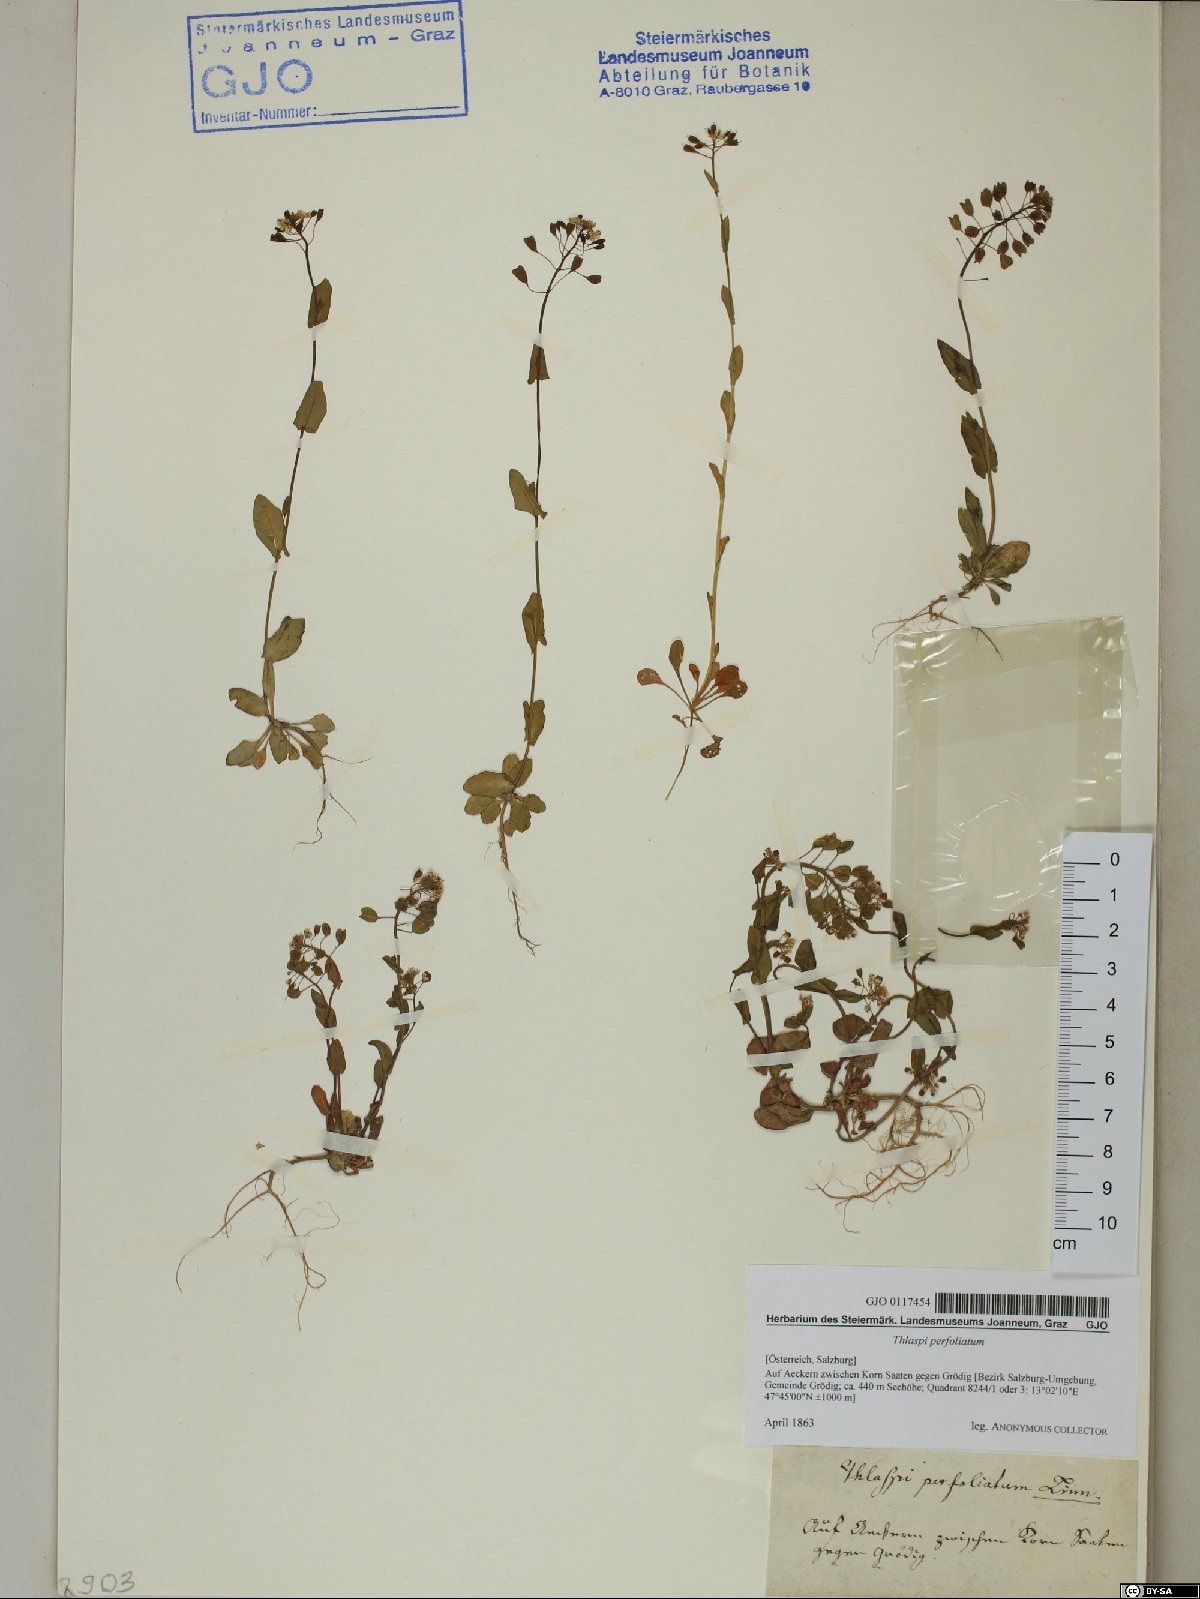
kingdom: Plantae
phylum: Tracheophyta
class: Magnoliopsida
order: Brassicales
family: Brassicaceae
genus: Noccaea
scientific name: Noccaea perfoliata
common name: Perfoliate pennycress
